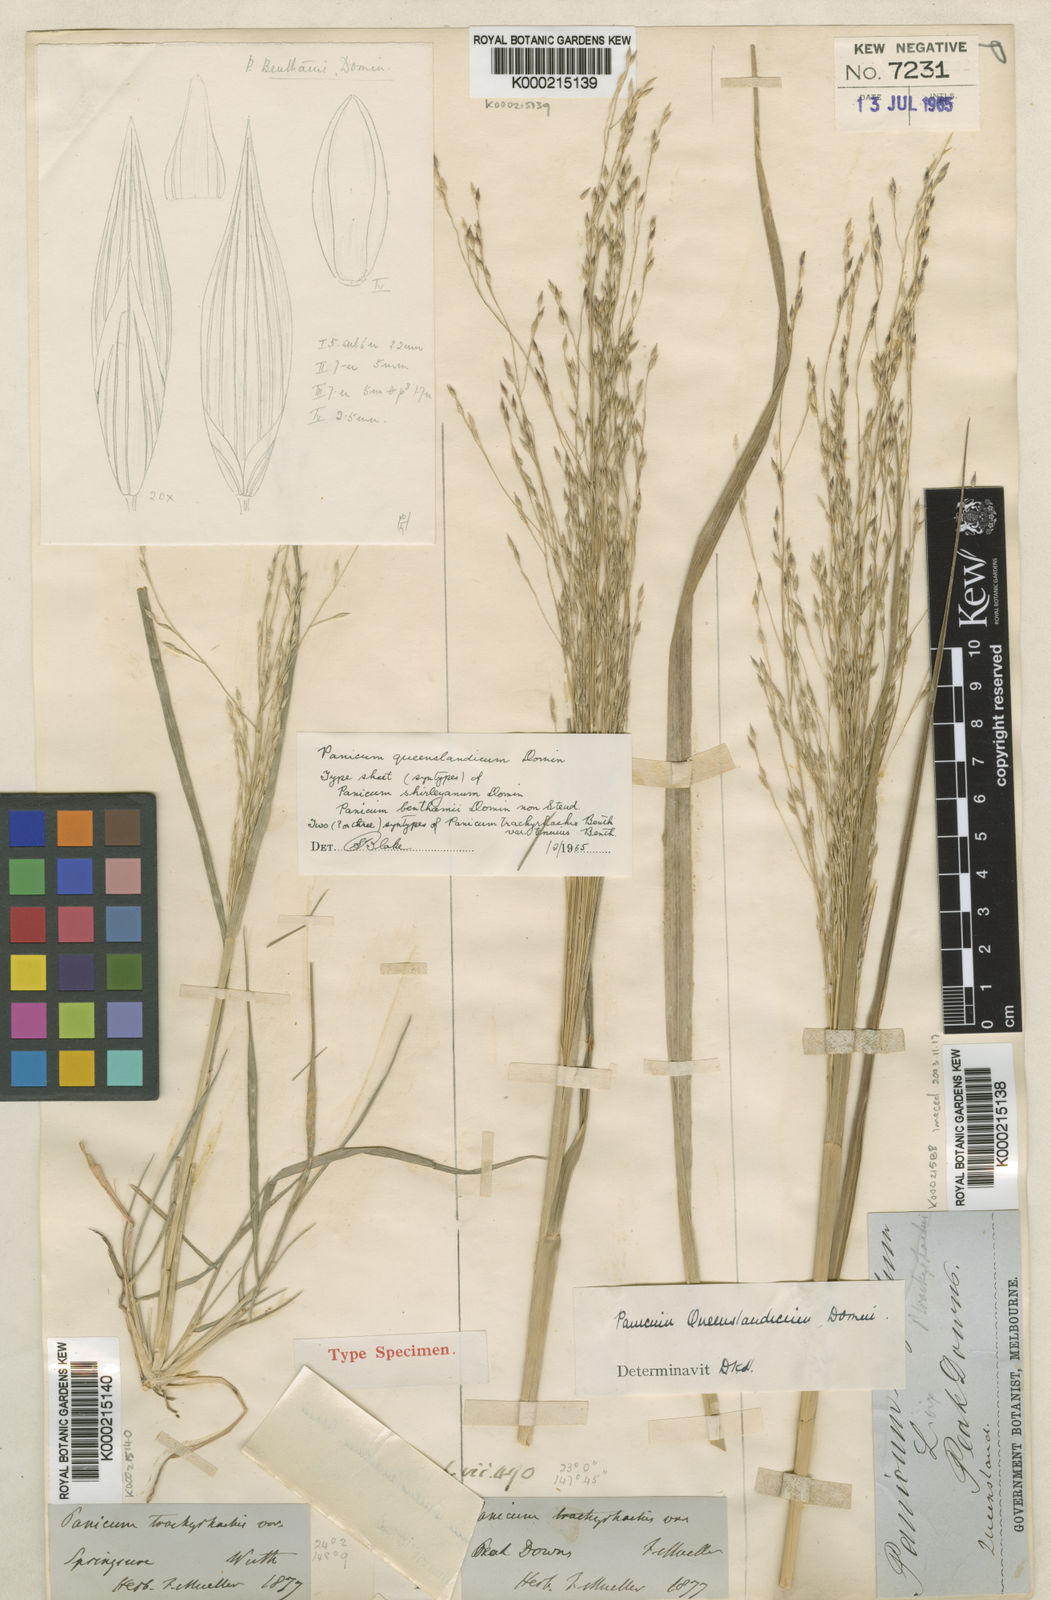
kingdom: Plantae
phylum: Tracheophyta
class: Liliopsida
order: Poales
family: Poaceae
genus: Panicum
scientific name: Panicum queenslandicum
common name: Yabila grass
